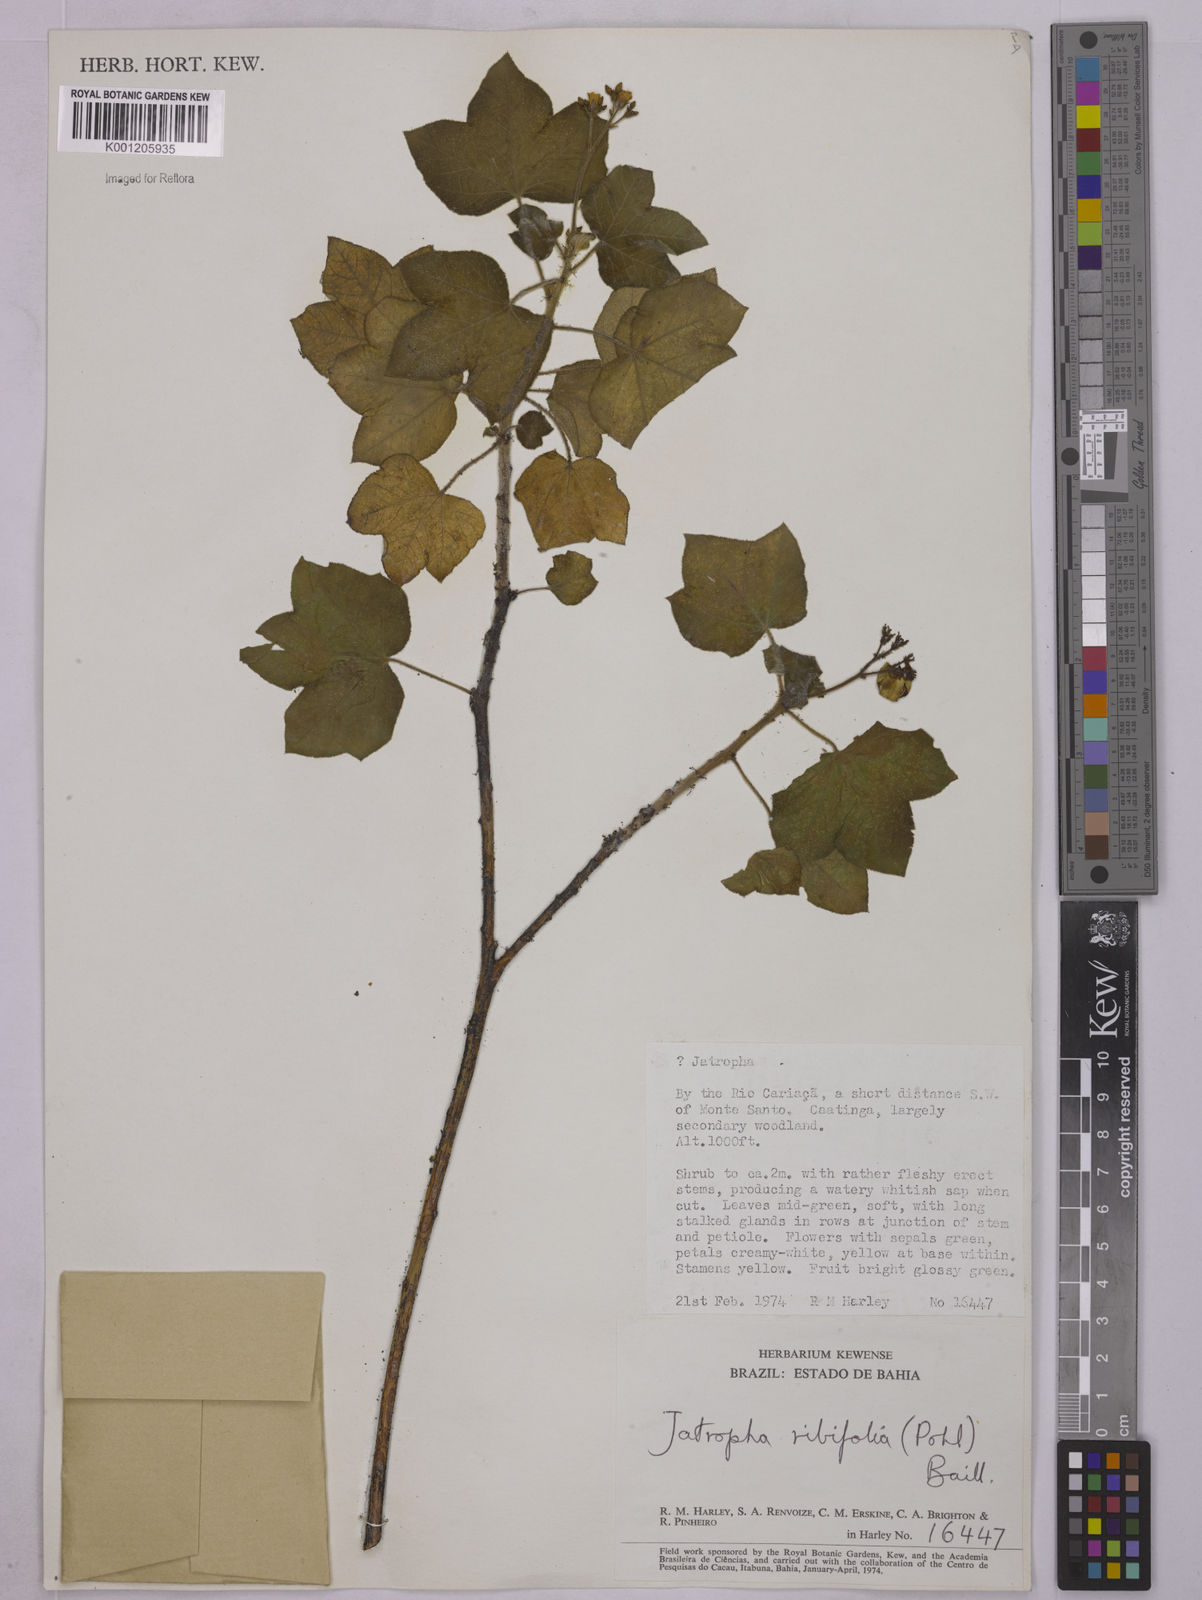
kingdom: Plantae
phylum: Tracheophyta
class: Magnoliopsida
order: Malpighiales
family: Euphorbiaceae
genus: Jatropha
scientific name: Jatropha ribifolia
